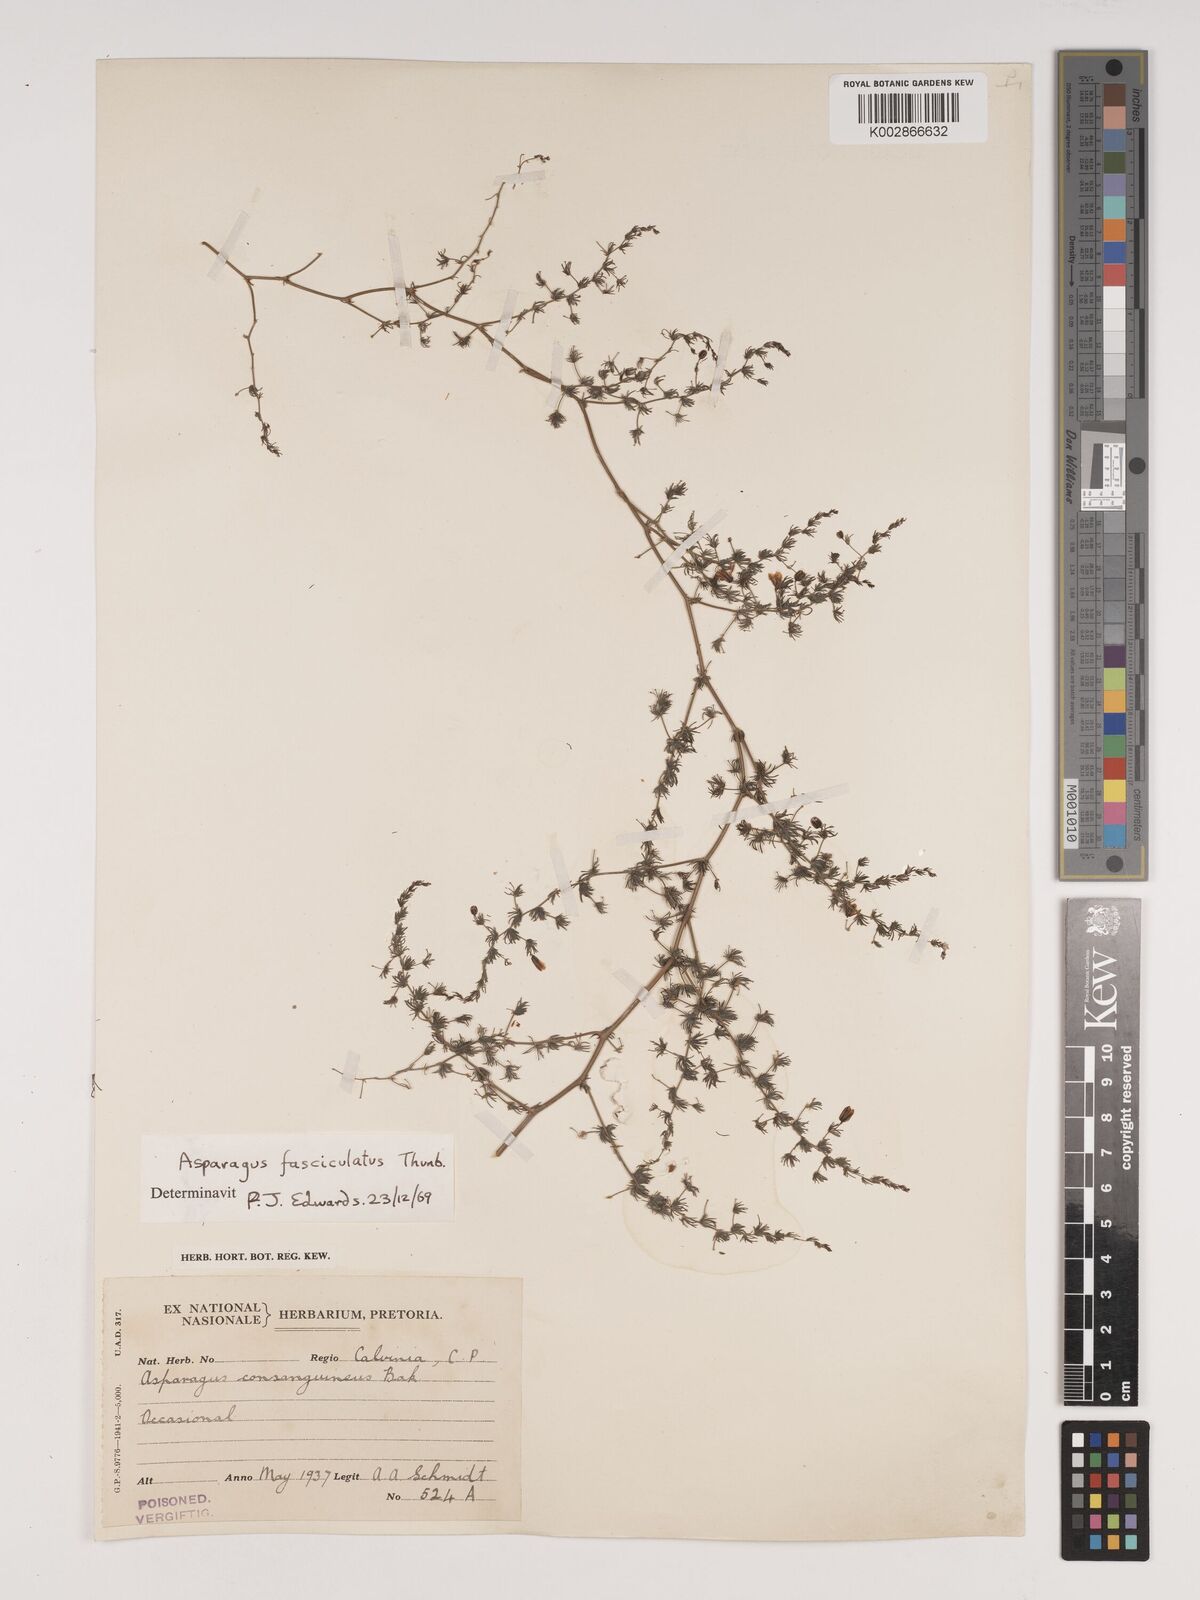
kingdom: Plantae
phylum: Tracheophyta
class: Liliopsida
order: Asparagales
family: Asparagaceae
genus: Asparagus
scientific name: Asparagus fasciculatus
